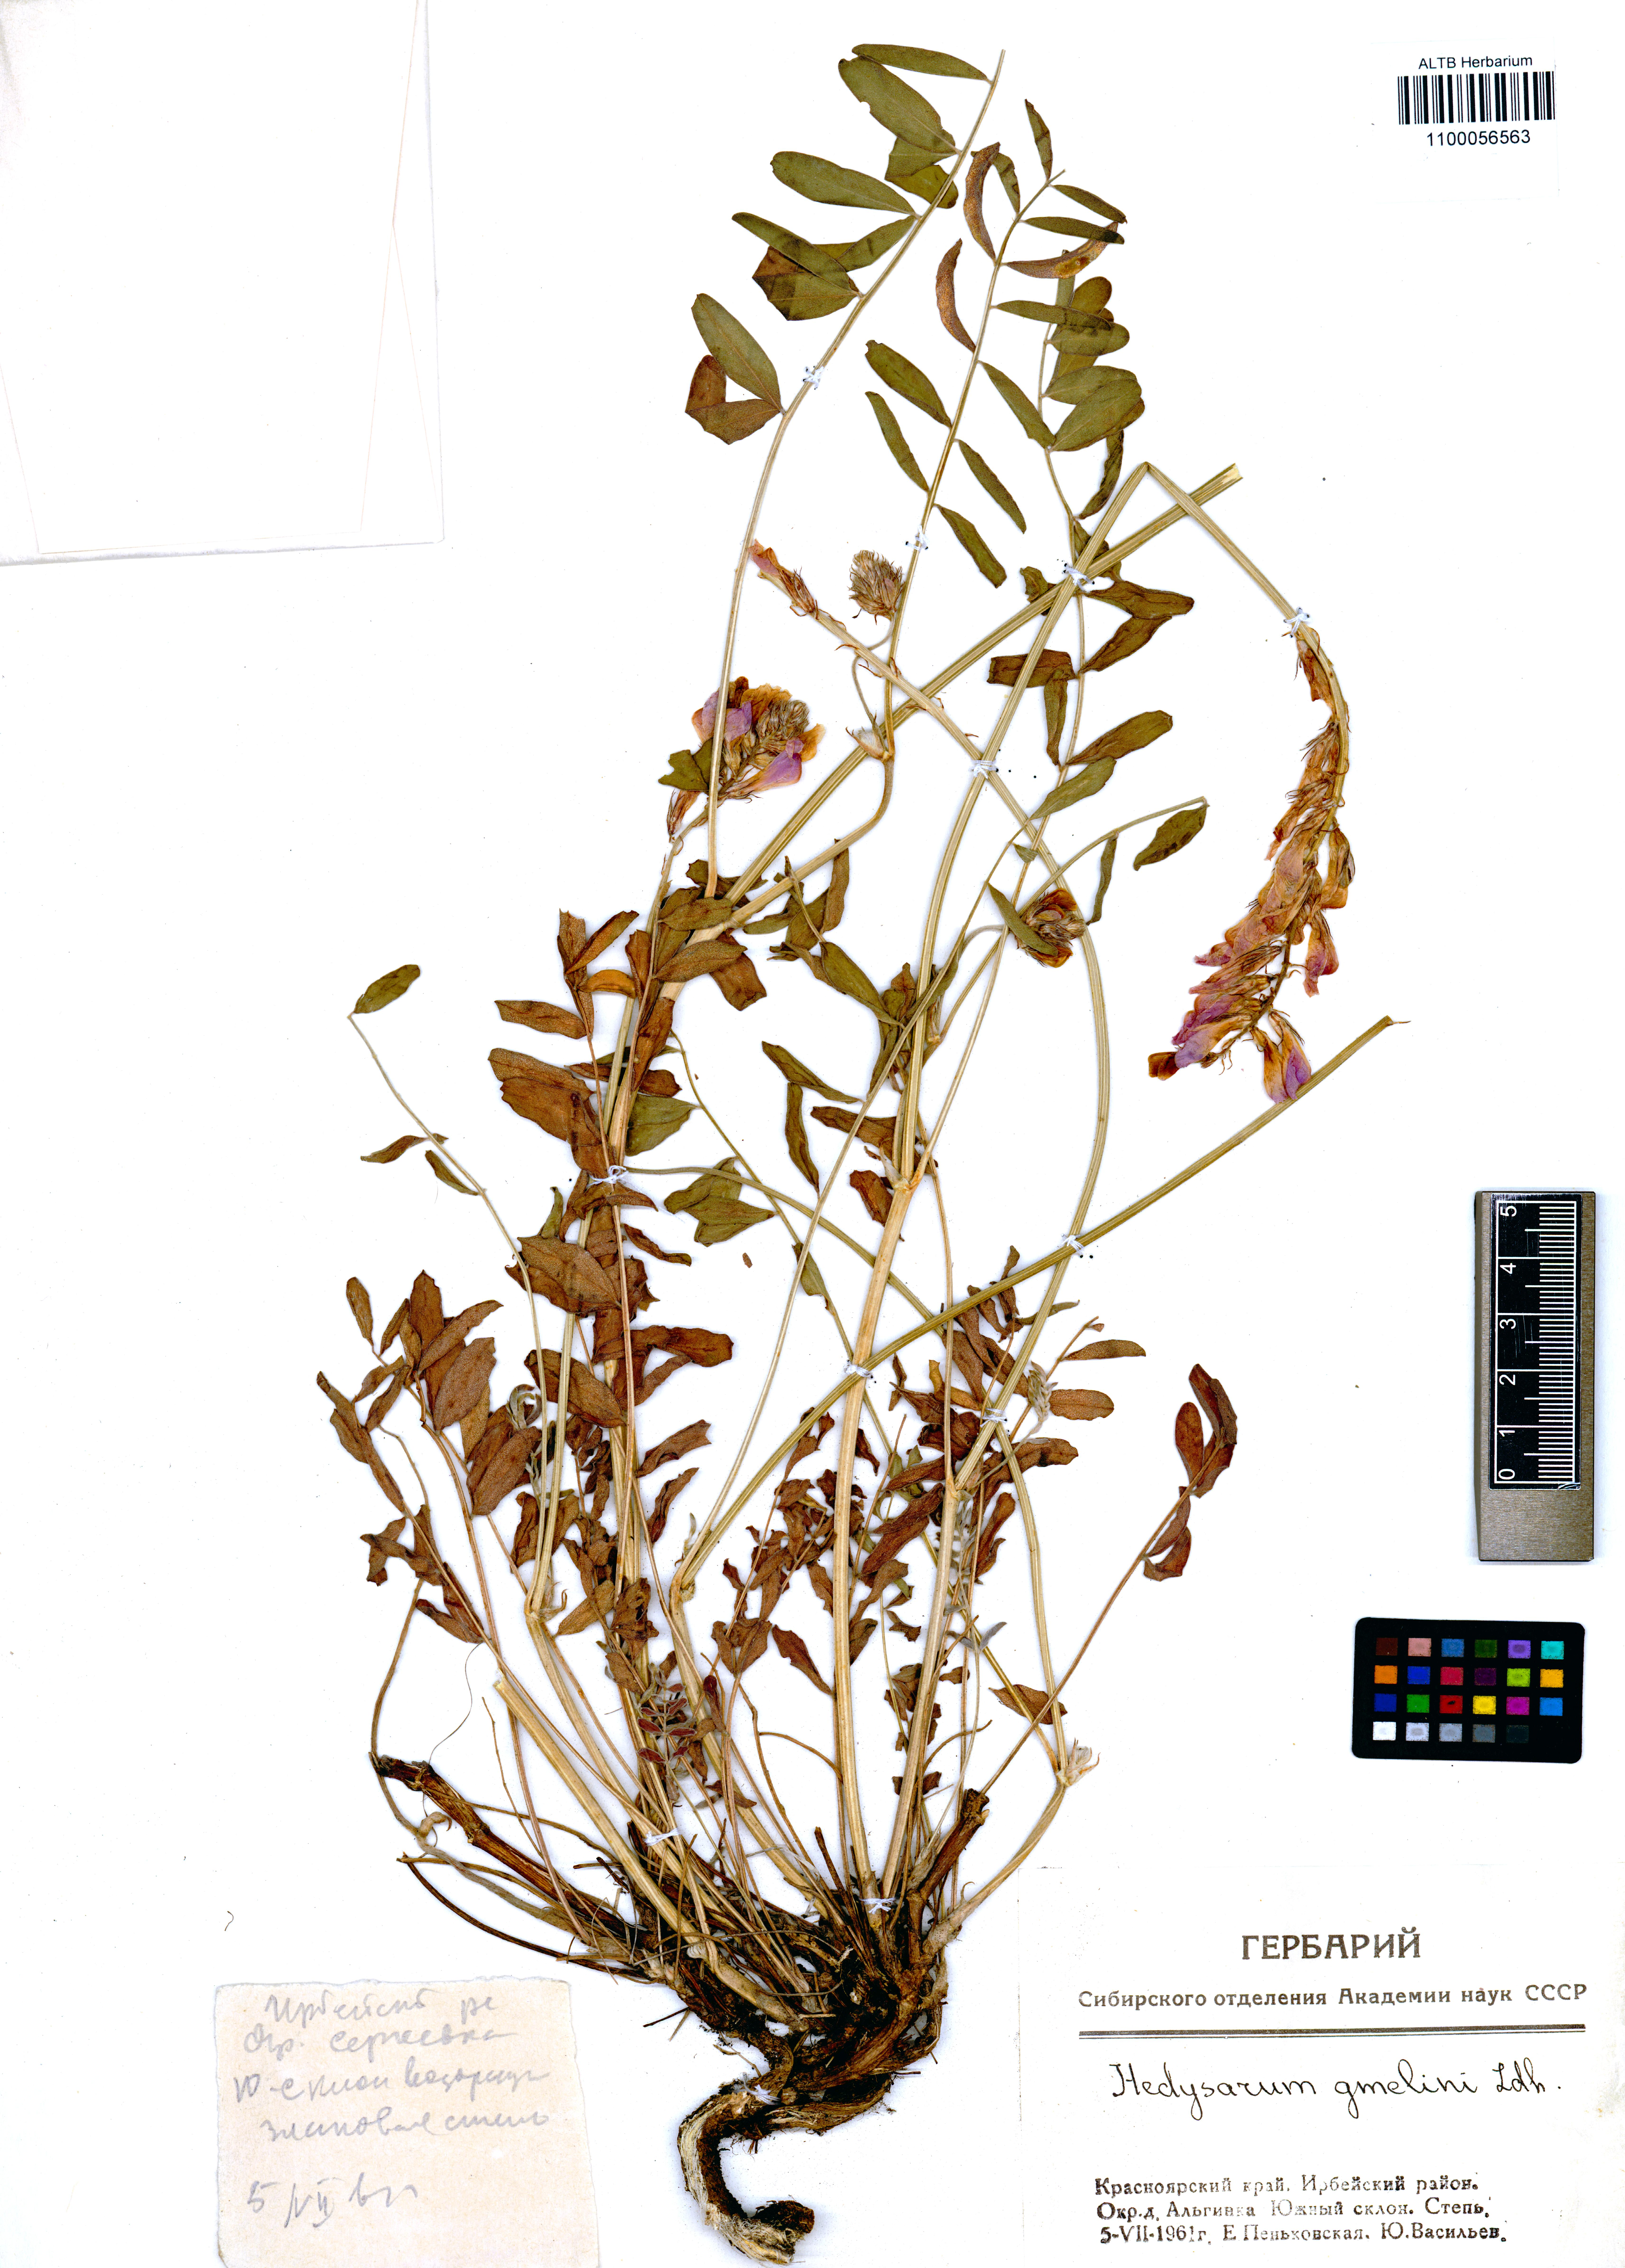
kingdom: Plantae
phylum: Tracheophyta
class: Magnoliopsida
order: Fabales
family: Fabaceae
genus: Hedysarum
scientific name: Hedysarum gmelinii
